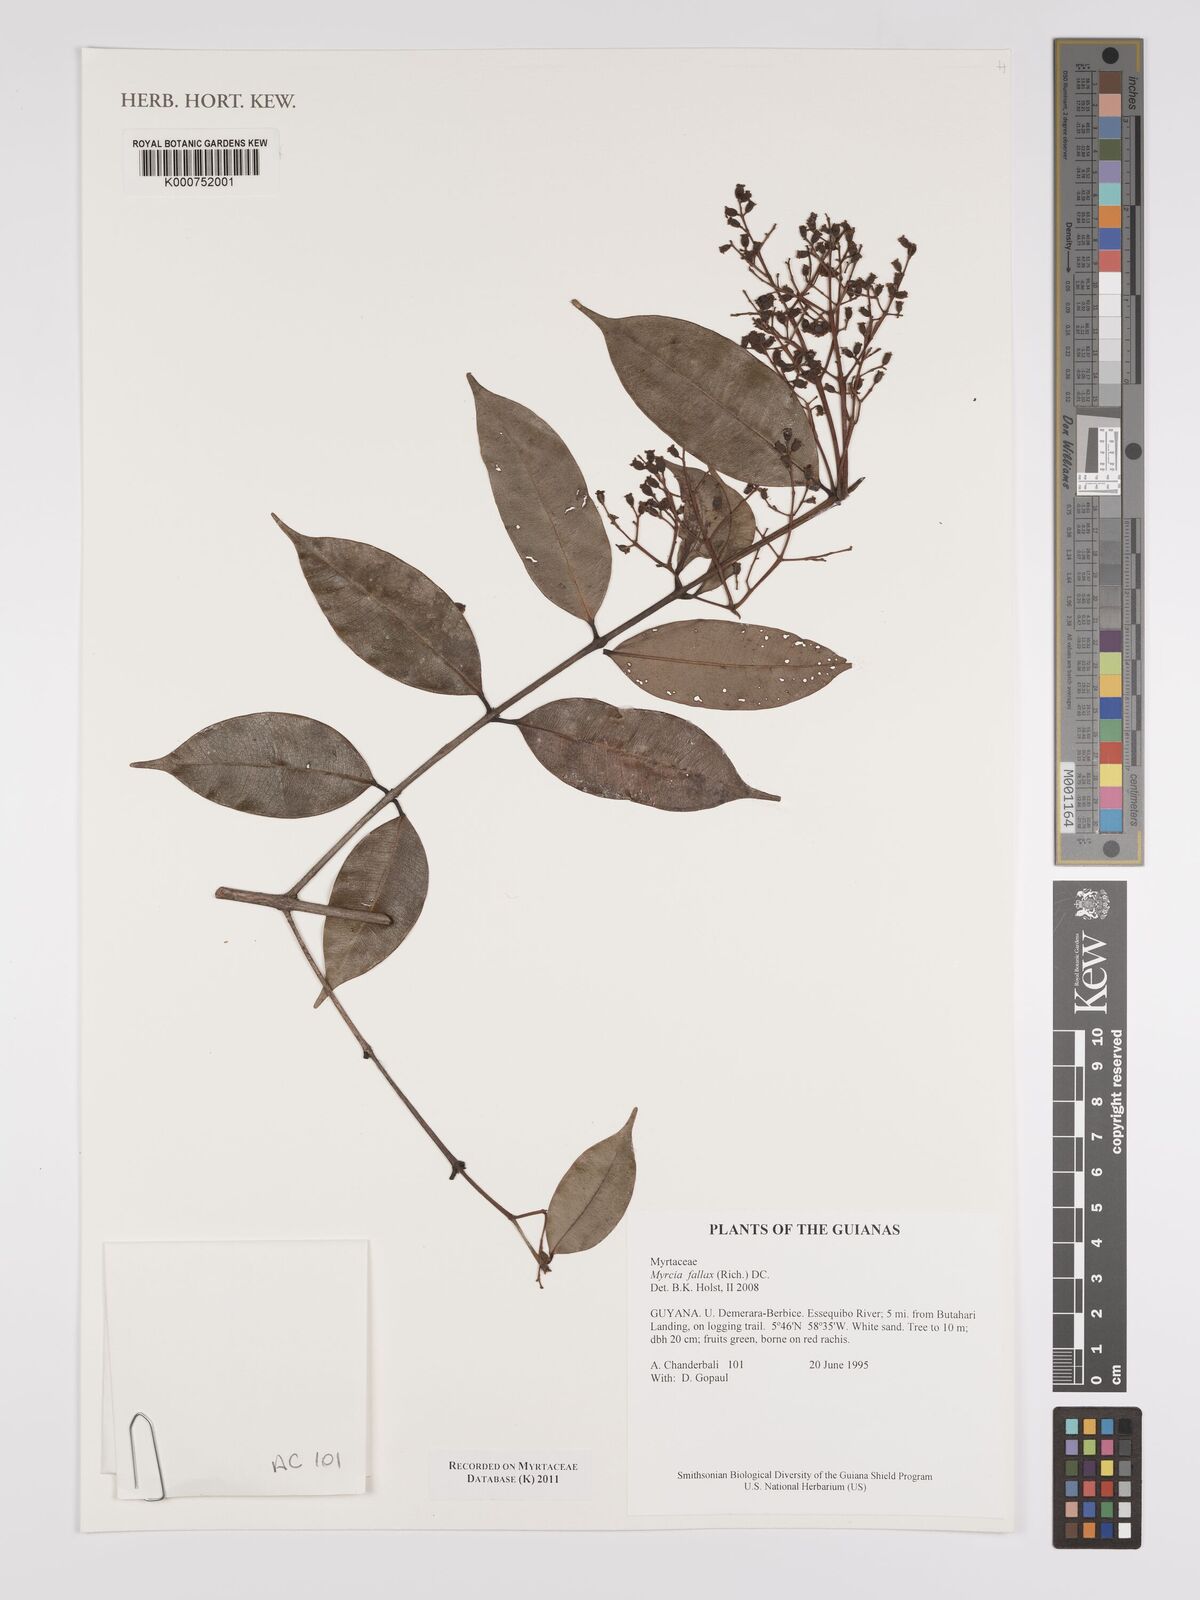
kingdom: Plantae
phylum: Tracheophyta
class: Magnoliopsida
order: Myrtales
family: Myrtaceae
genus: Myrcia
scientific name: Myrcia splendens
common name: Surinam cherry
